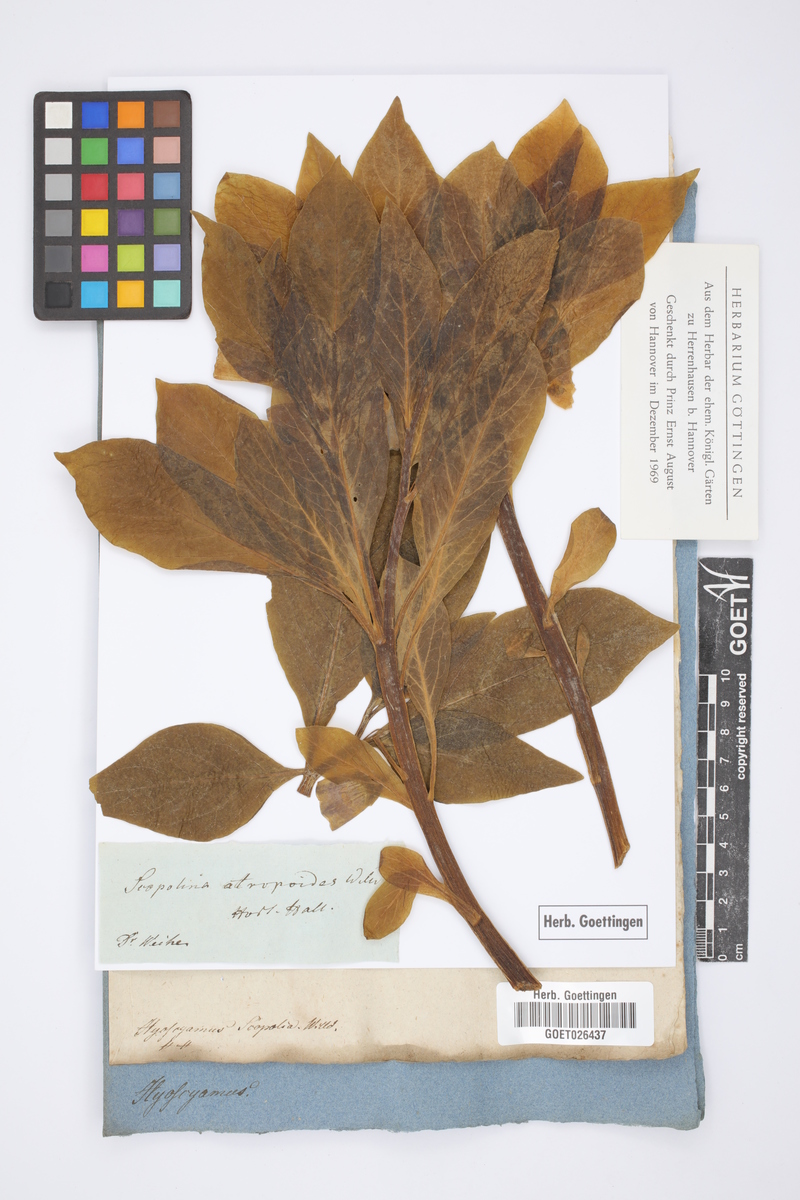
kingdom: Plantae
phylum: Tracheophyta
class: Magnoliopsida
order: Solanales
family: Solanaceae
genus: Scopolia
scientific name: Scopolia carniolica
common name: Scopolia
